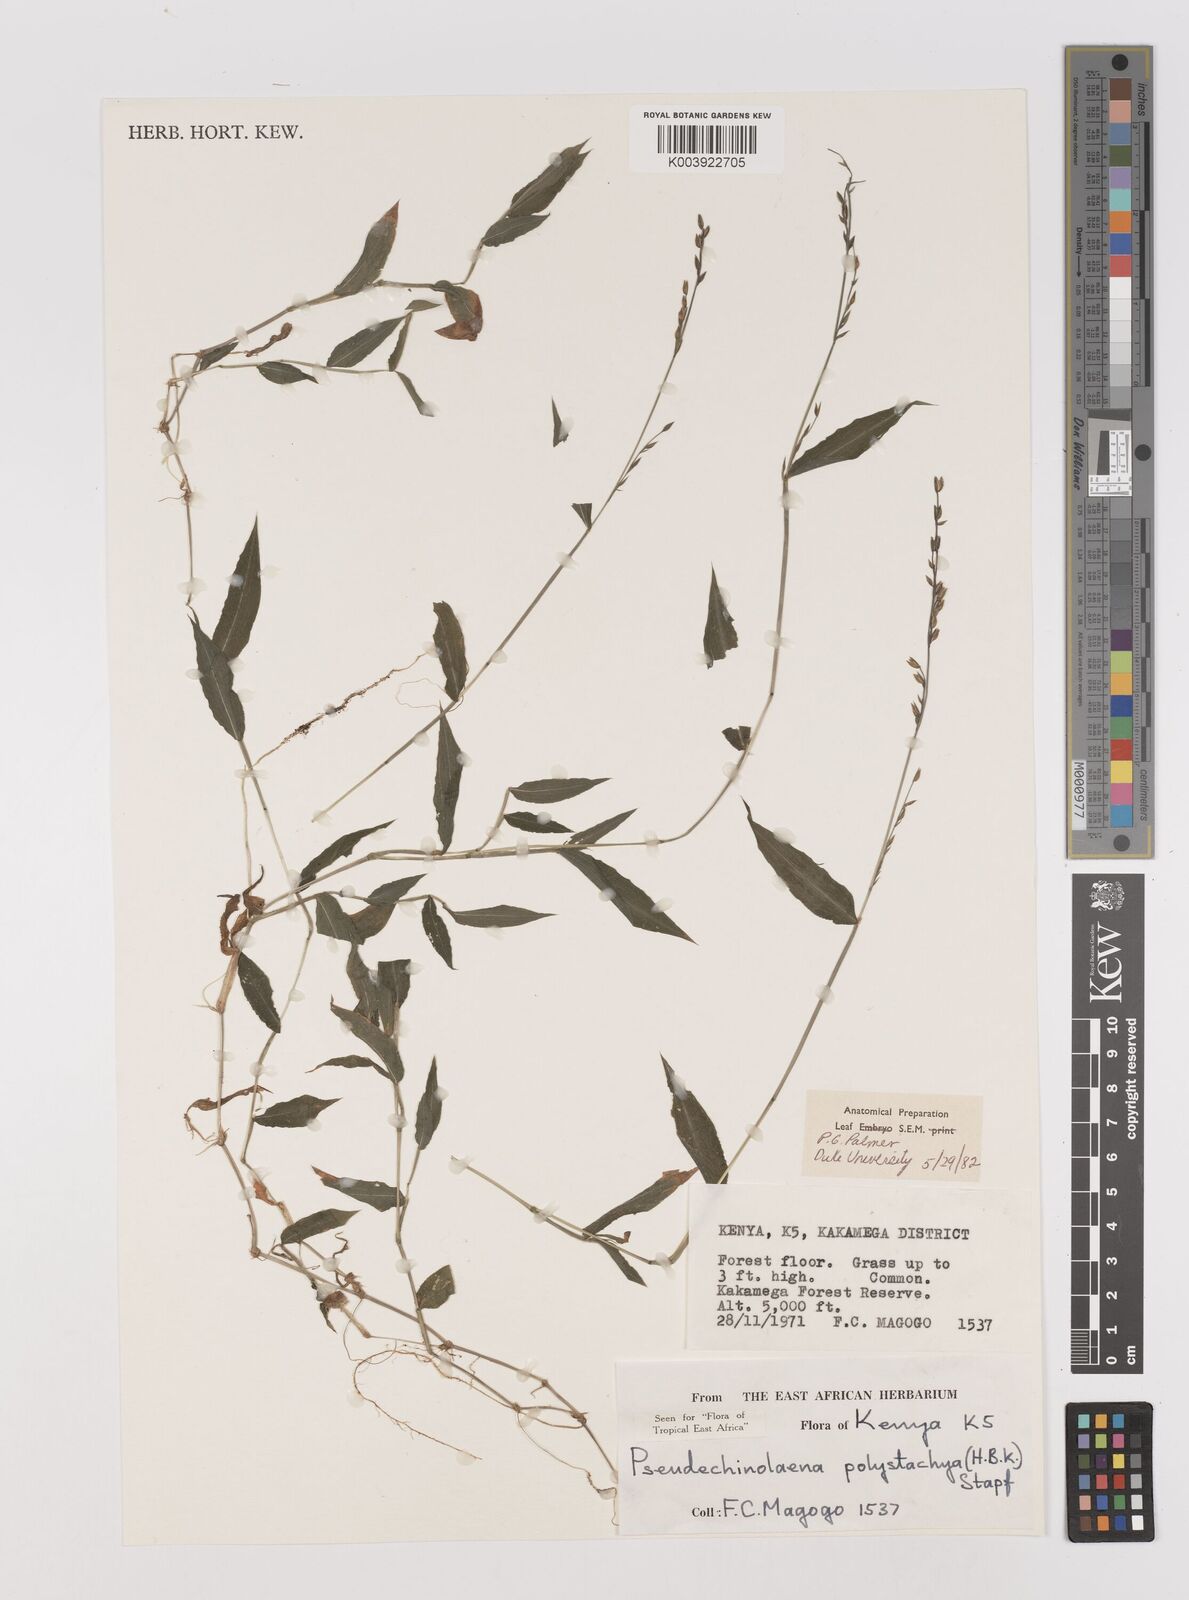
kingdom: Plantae
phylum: Tracheophyta
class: Liliopsida
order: Poales
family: Poaceae
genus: Pseudechinolaena
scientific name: Pseudechinolaena polystachya
